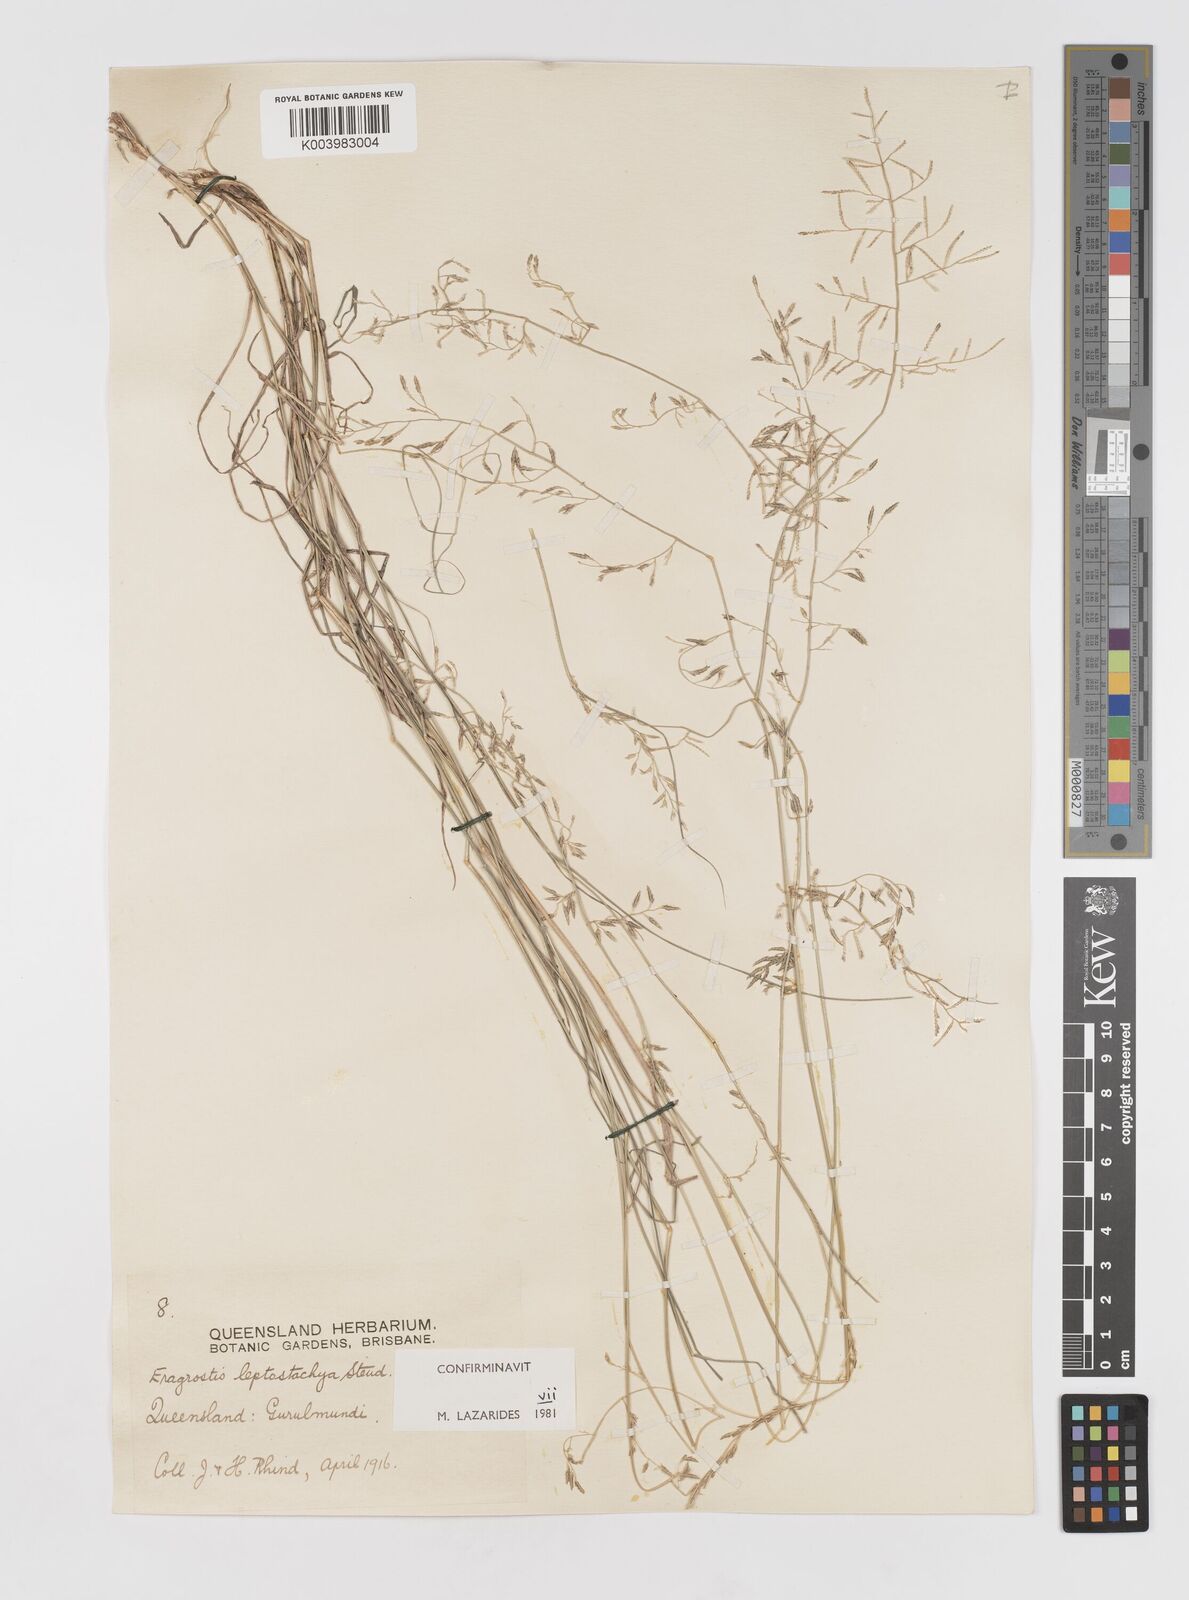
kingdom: Plantae
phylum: Tracheophyta
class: Liliopsida
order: Poales
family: Poaceae
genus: Eragrostis
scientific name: Eragrostis leptostachya
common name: Australian lovegrass
